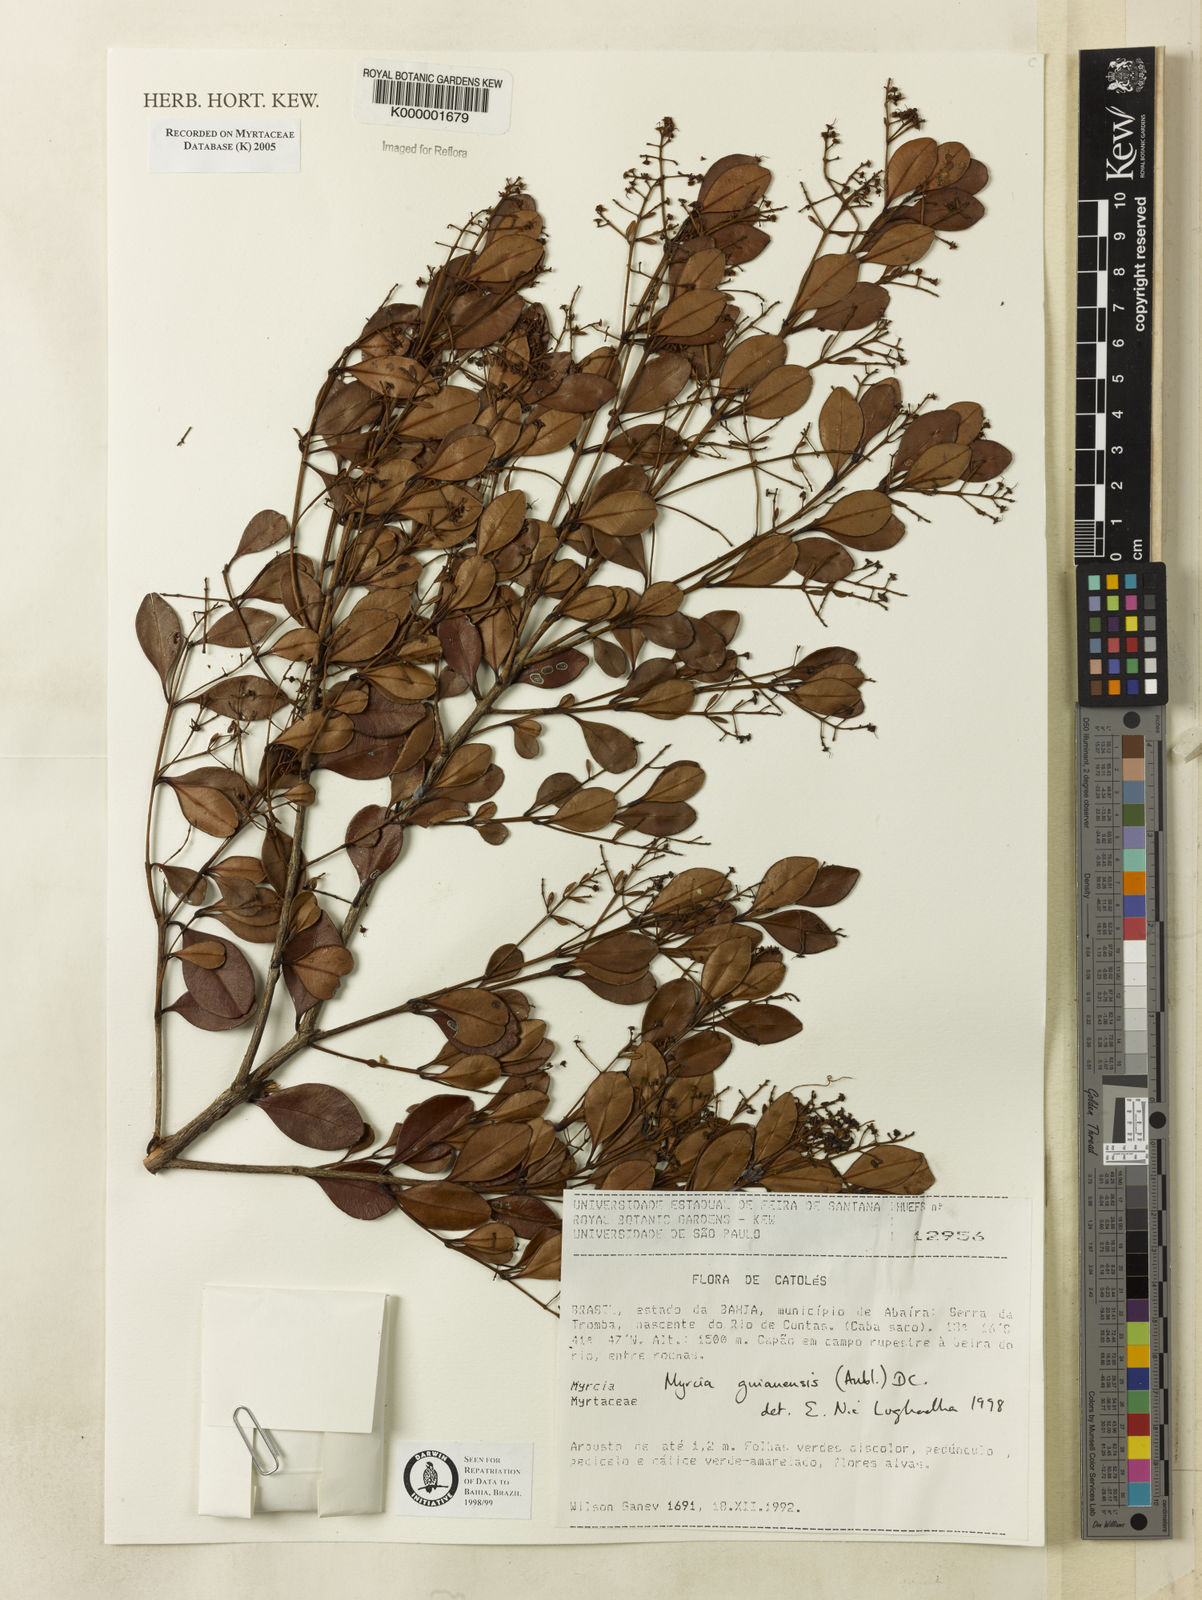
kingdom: Plantae
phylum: Tracheophyta
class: Magnoliopsida
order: Myrtales
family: Myrtaceae
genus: Myrcia
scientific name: Myrcia guianensis
